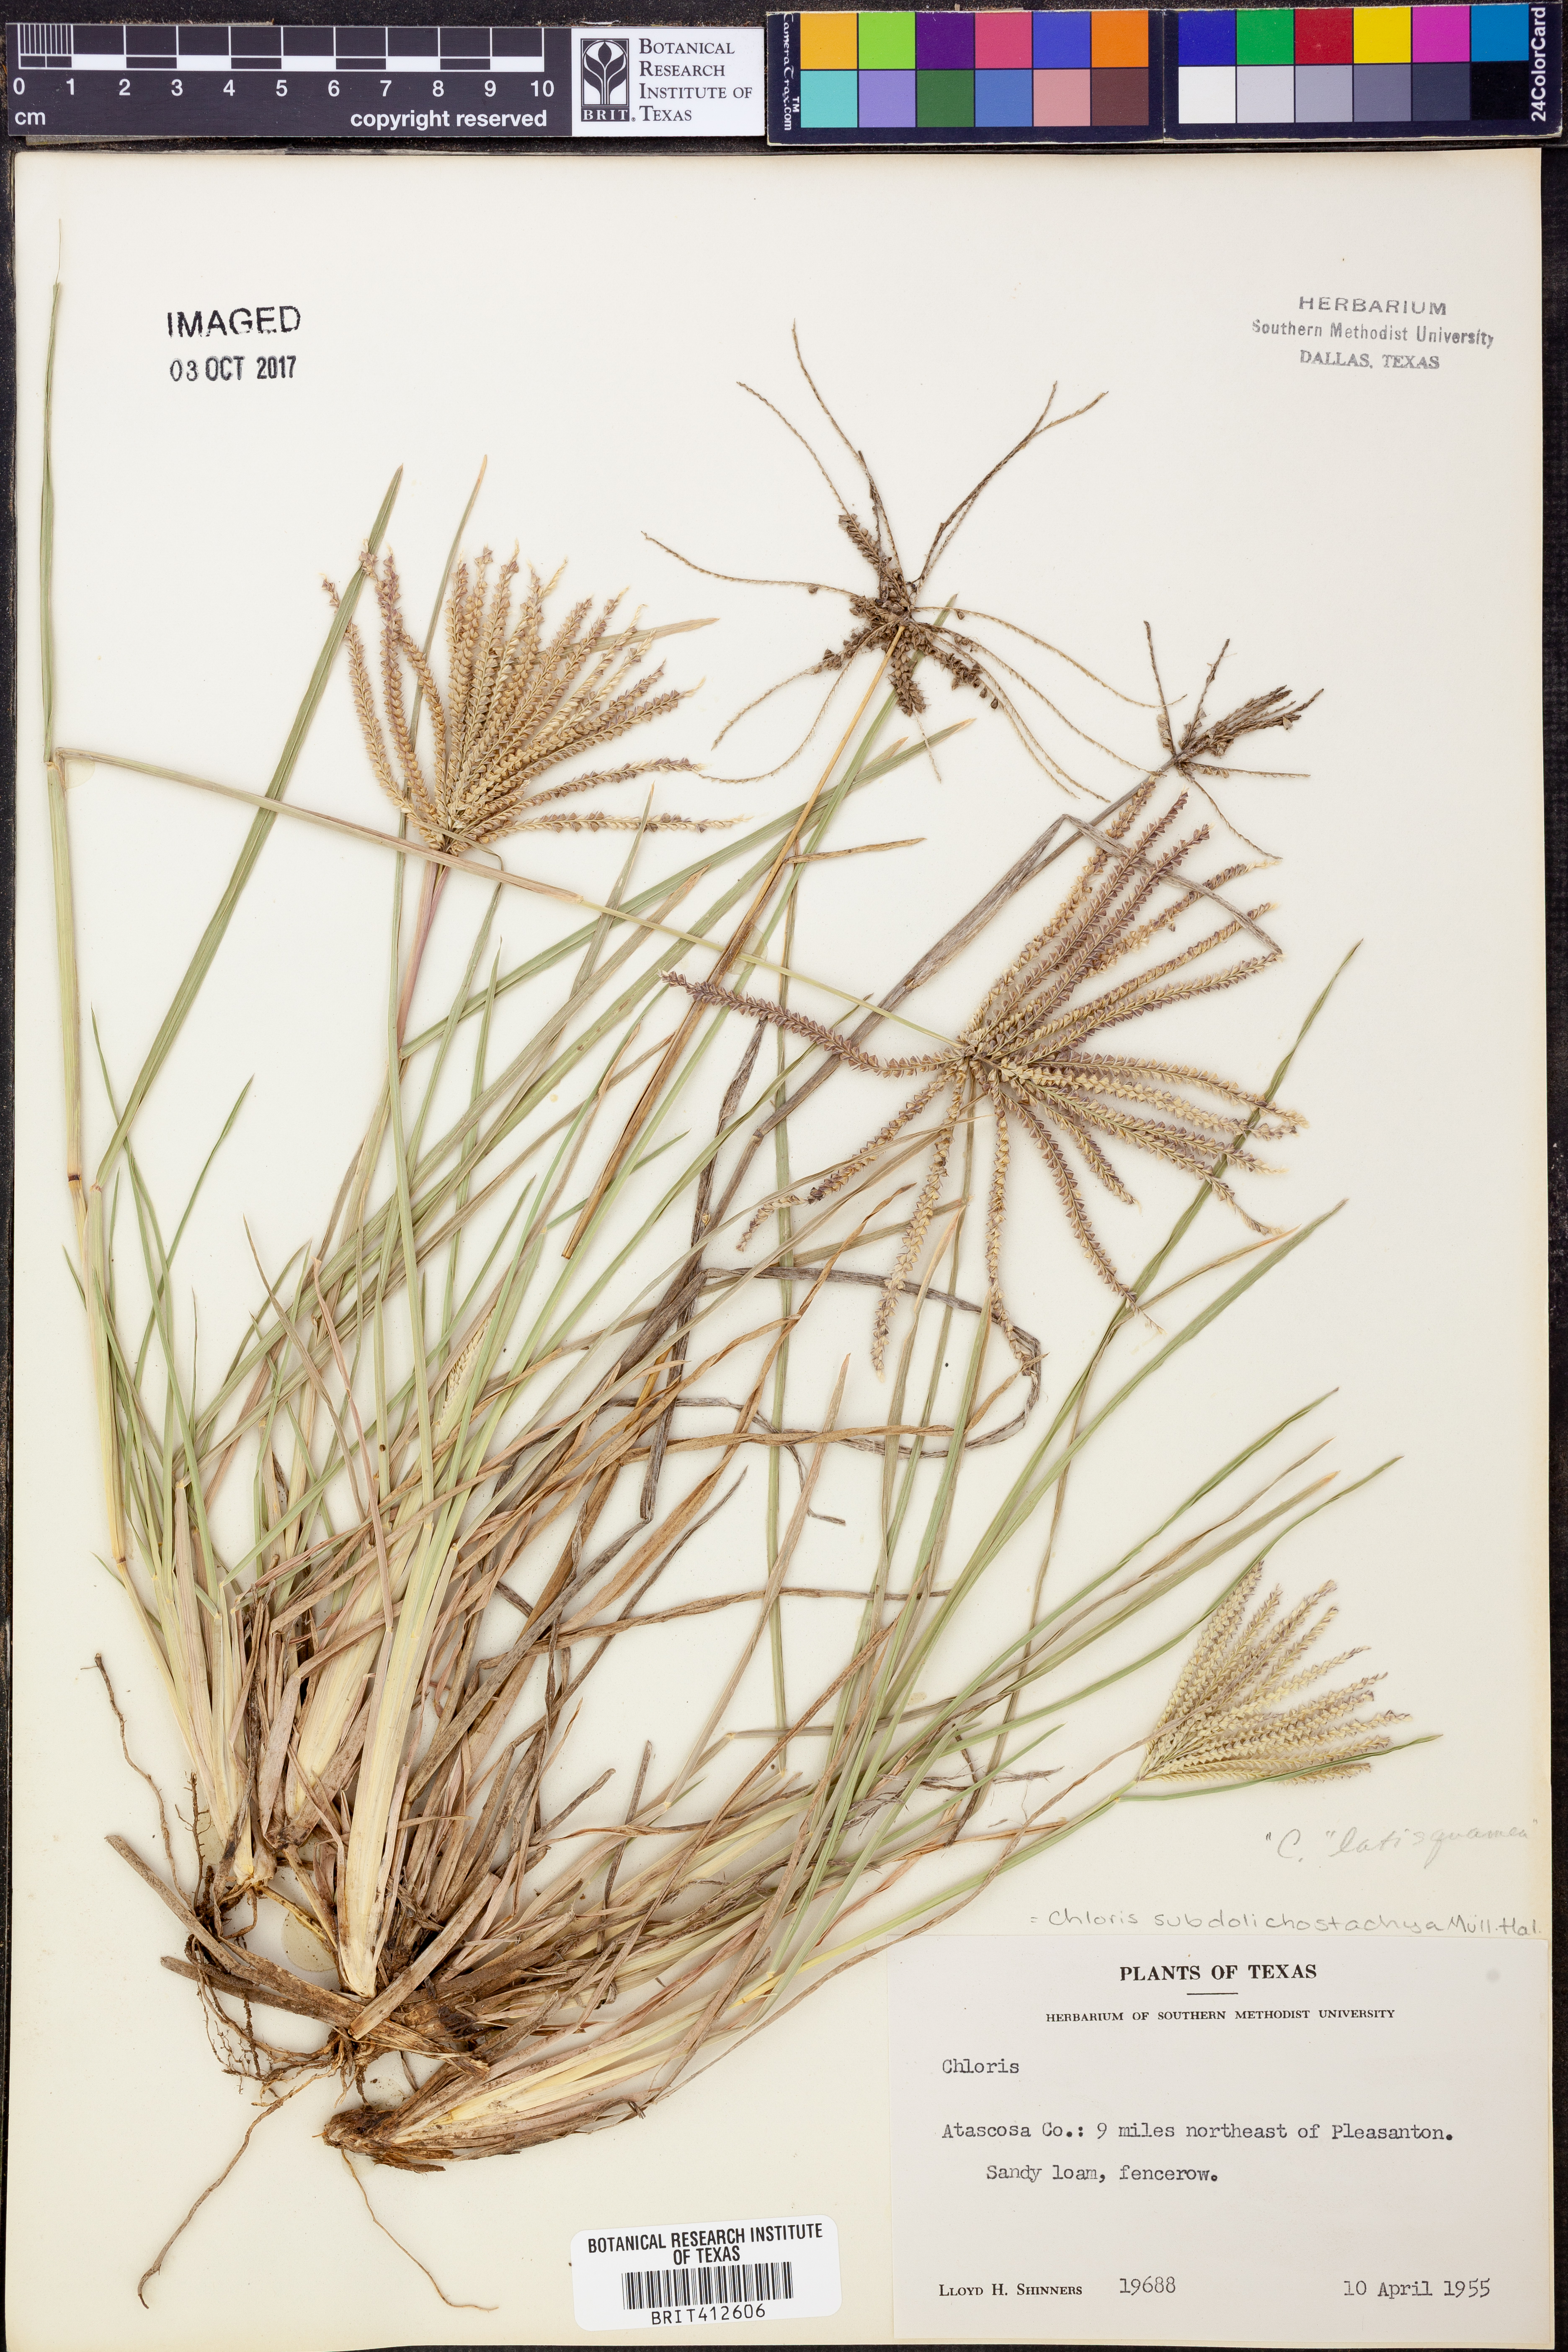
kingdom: Plantae
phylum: Tracheophyta
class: Liliopsida
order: Poales
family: Poaceae
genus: Chloris
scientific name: Chloris subdolichostachya
